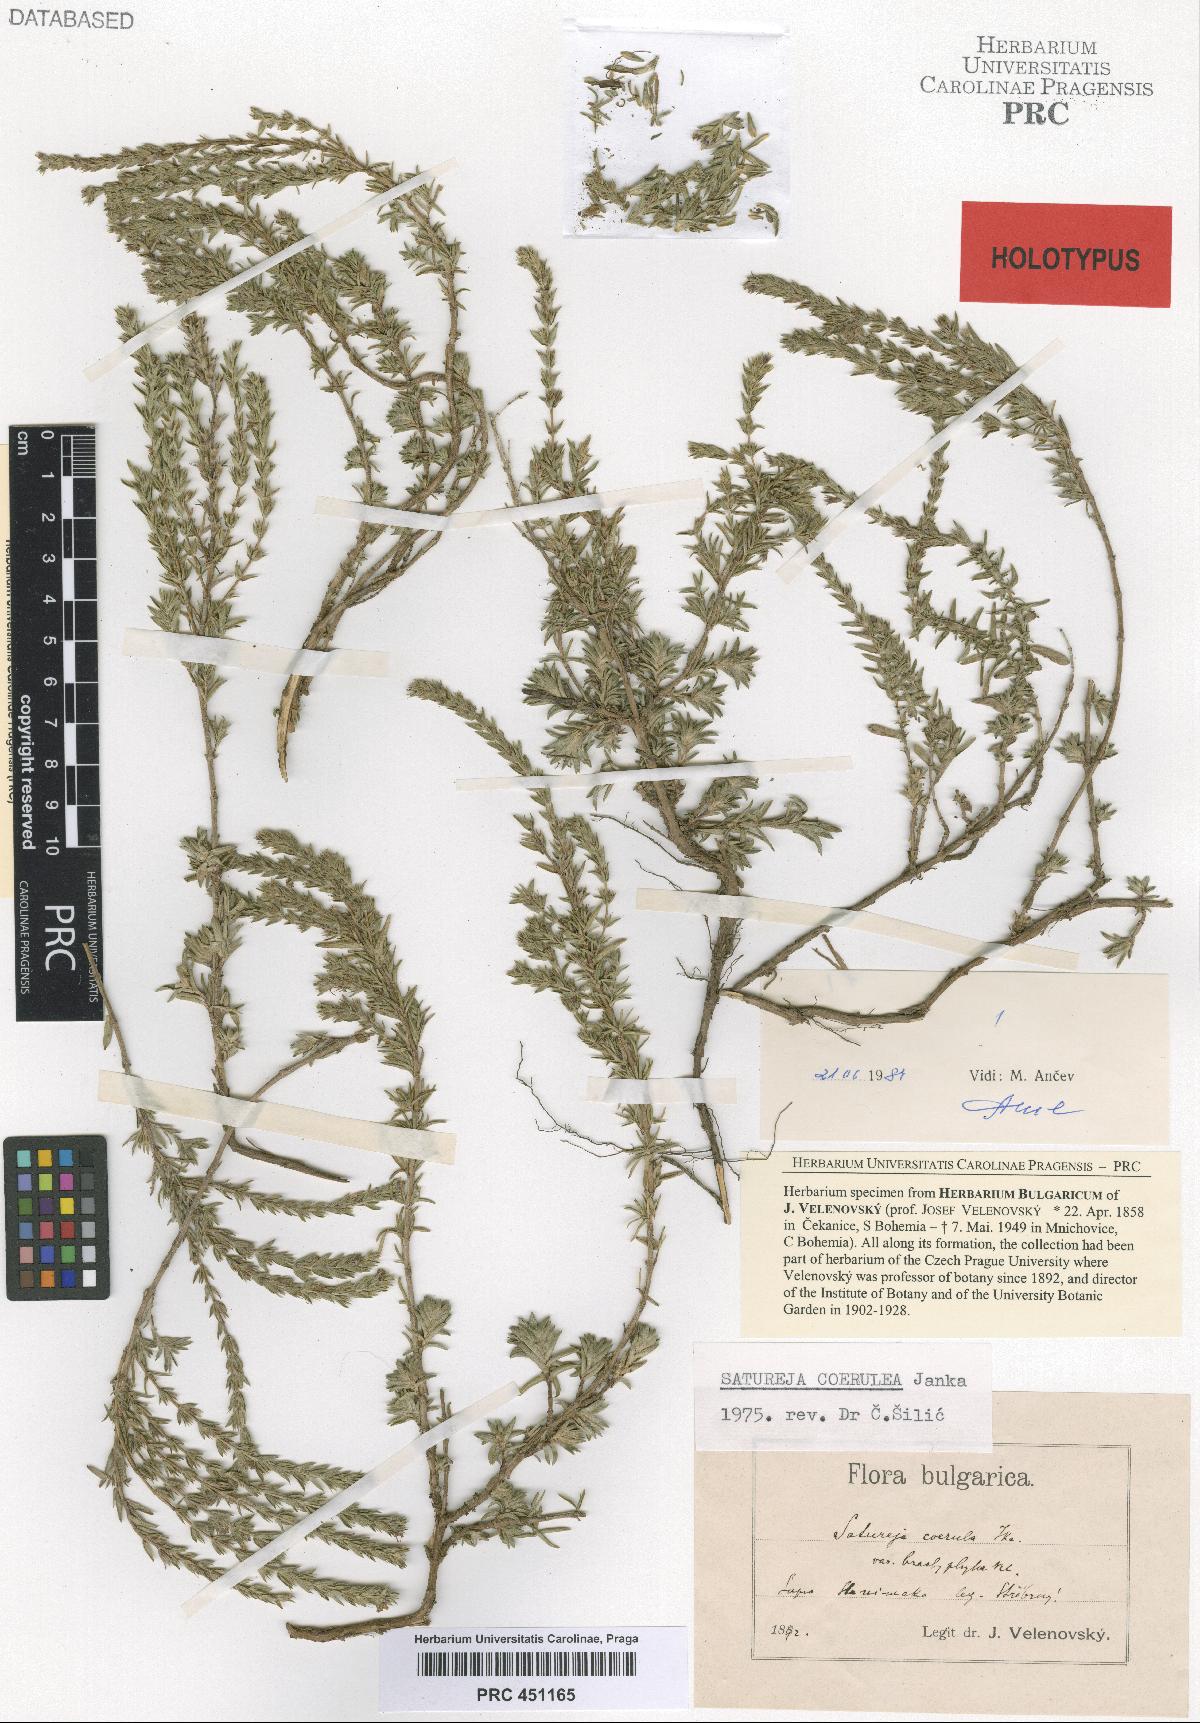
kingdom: Plantae
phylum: Tracheophyta
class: Magnoliopsida
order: Lamiales
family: Lamiaceae
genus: Satureja
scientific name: Satureja coerulea
